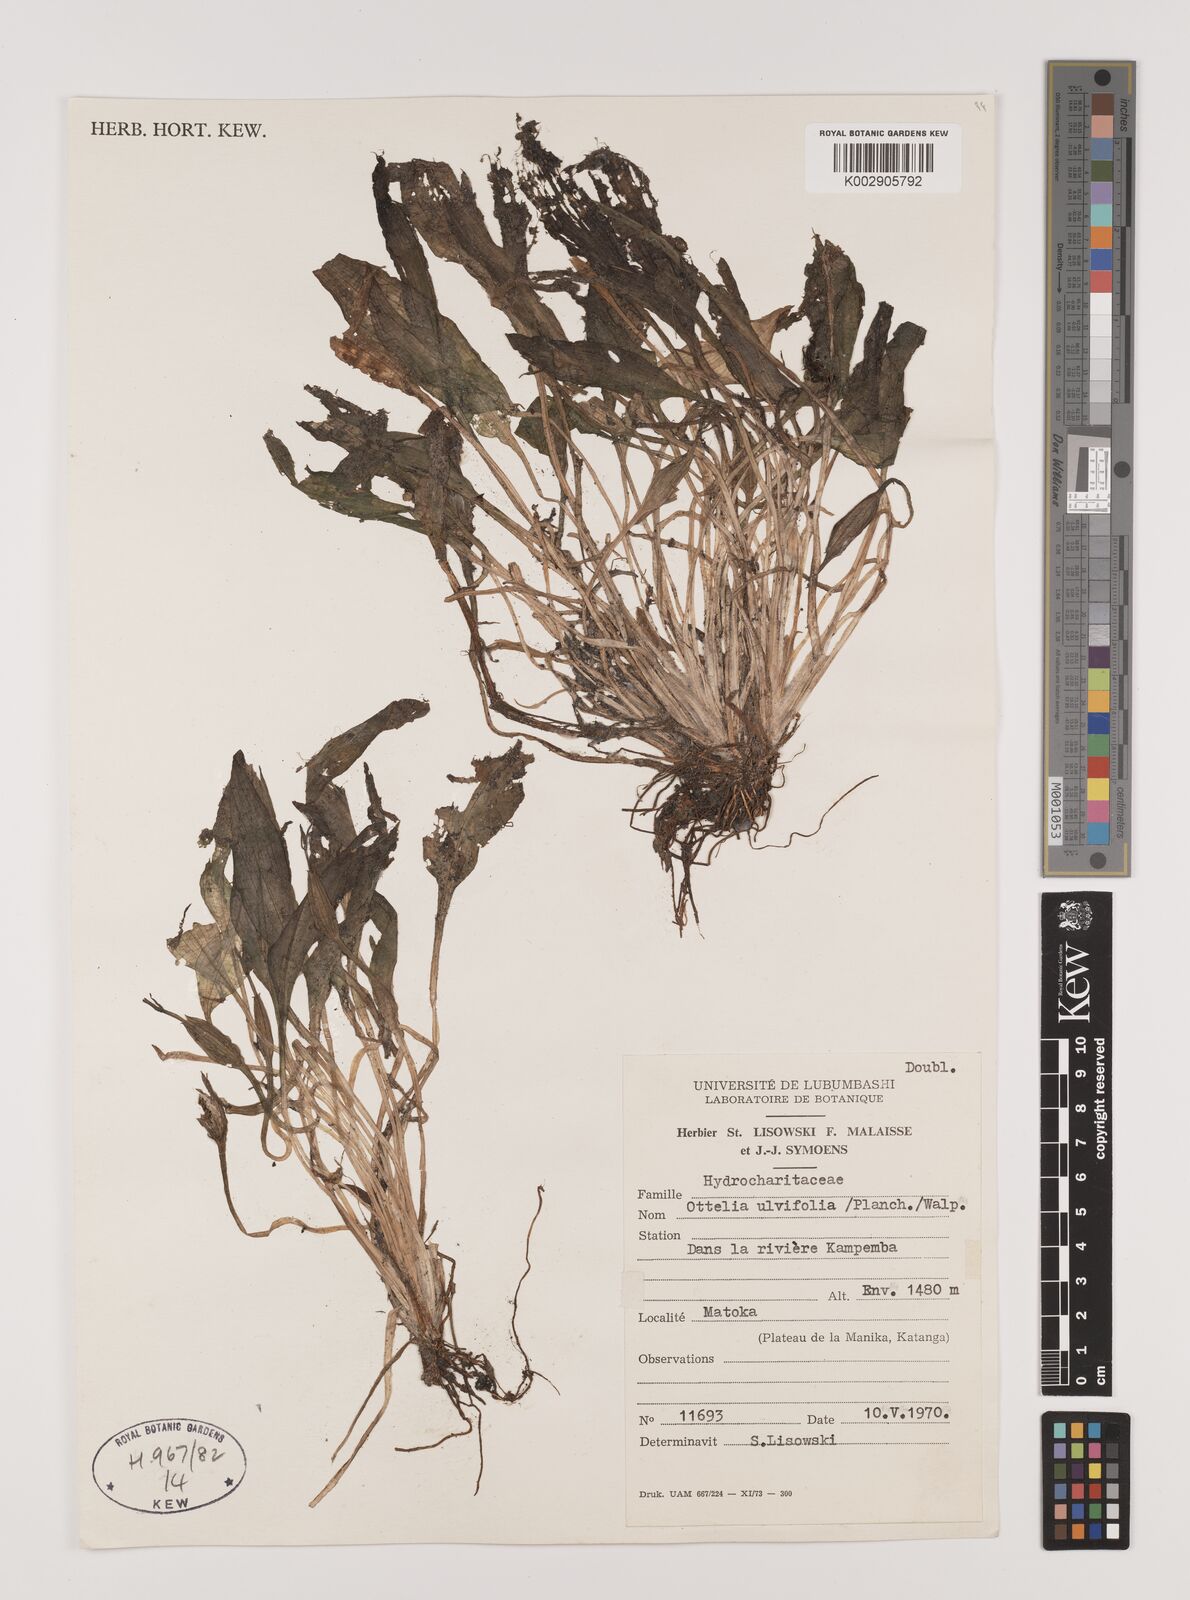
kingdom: Plantae
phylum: Tracheophyta
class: Liliopsida
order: Alismatales
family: Hydrocharitaceae
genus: Ottelia
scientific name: Ottelia ulvifolia
